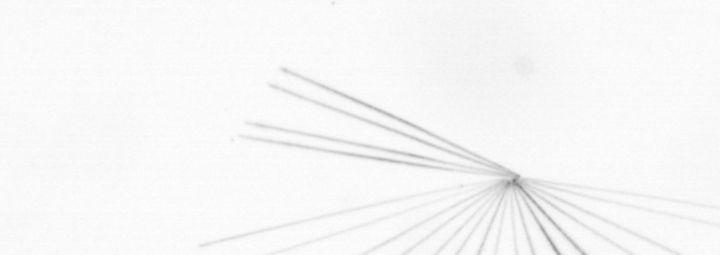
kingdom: Chromista
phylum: Ochrophyta
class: Bacillariophyceae
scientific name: Bacillariophyceae
